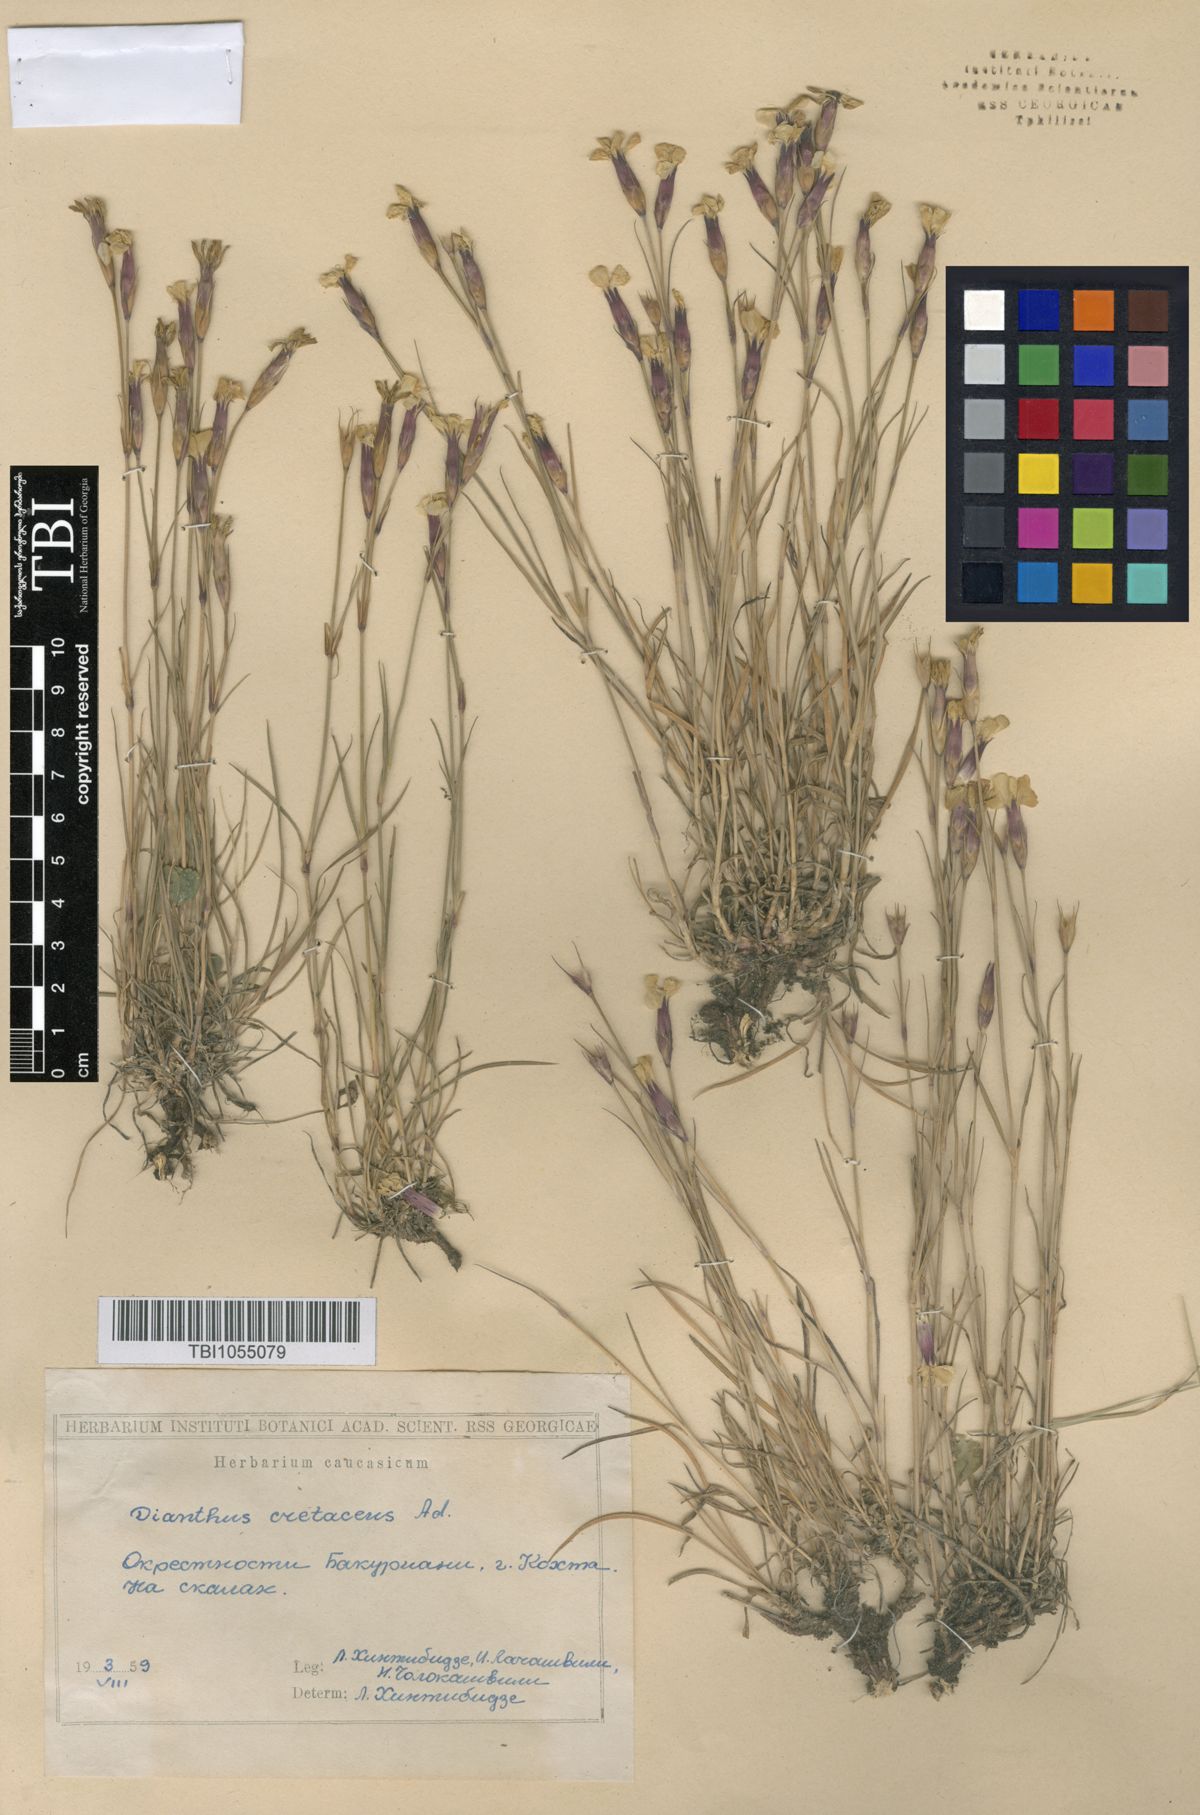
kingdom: Plantae
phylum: Tracheophyta
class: Magnoliopsida
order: Caryophyllales
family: Caryophyllaceae
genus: Dianthus
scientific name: Dianthus cretaceus
